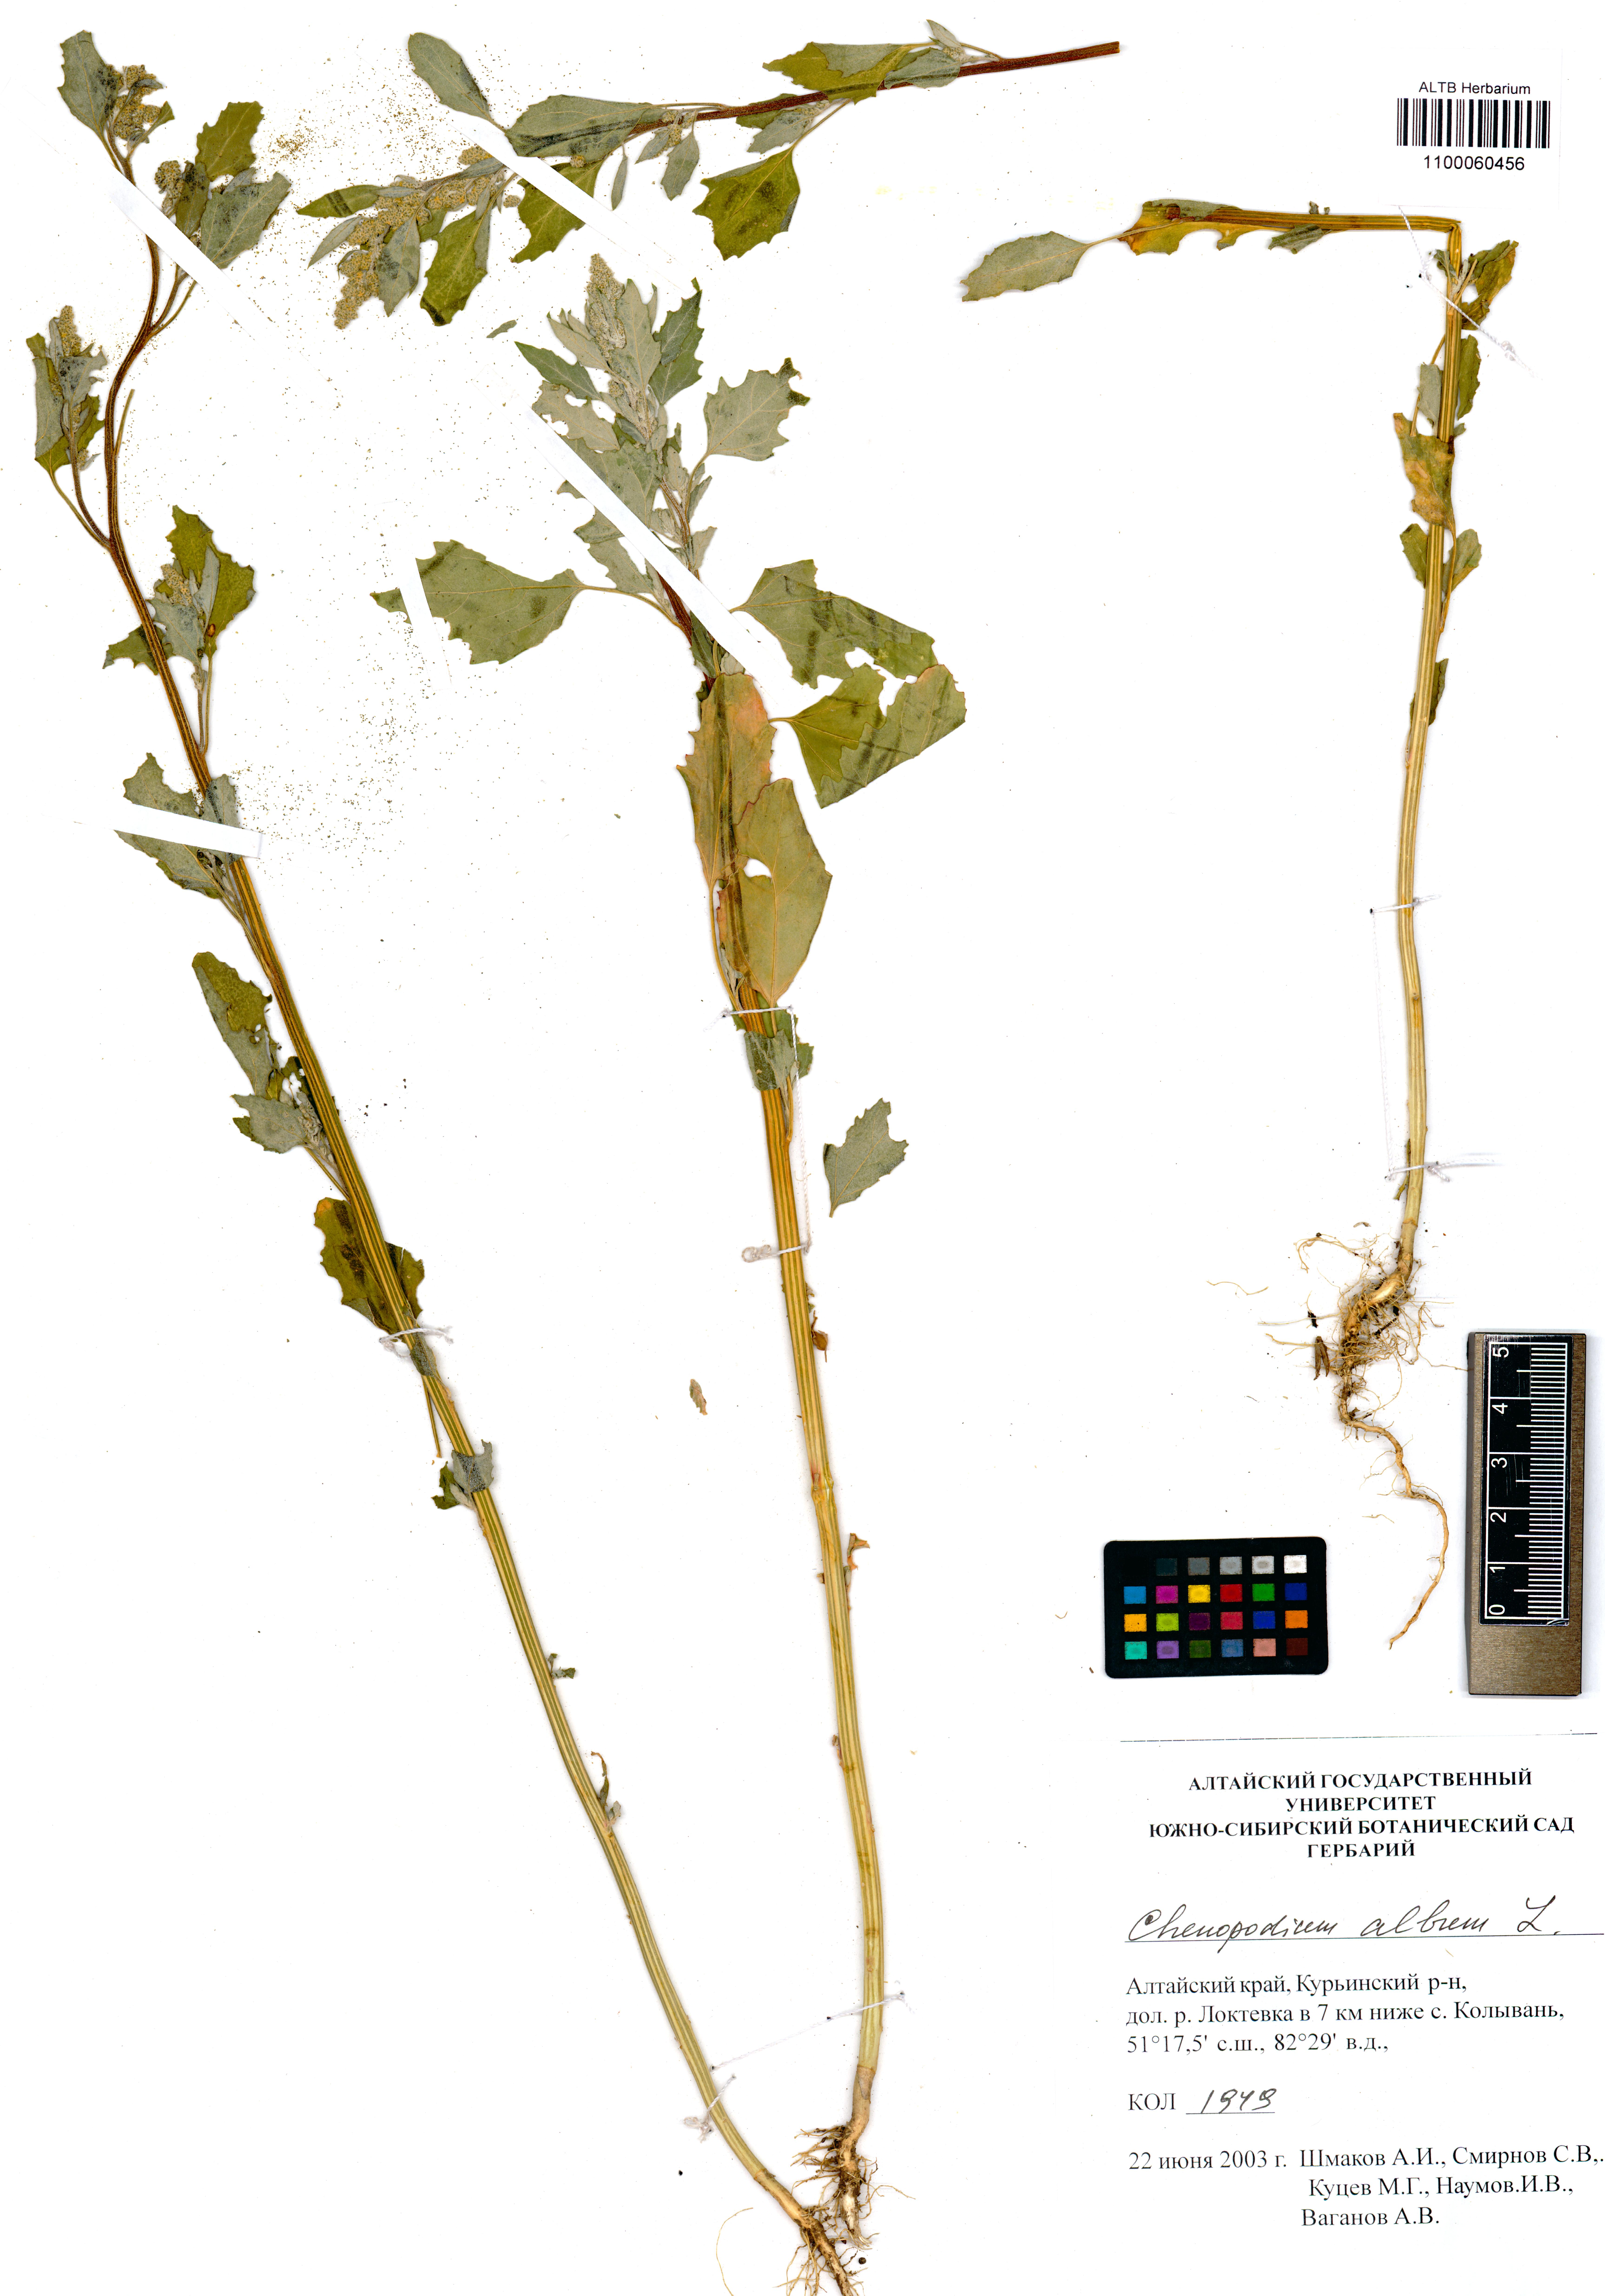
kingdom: Plantae
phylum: Tracheophyta
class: Magnoliopsida
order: Caryophyllales
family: Amaranthaceae
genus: Chenopodium
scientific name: Chenopodium album
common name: Fat-hen
